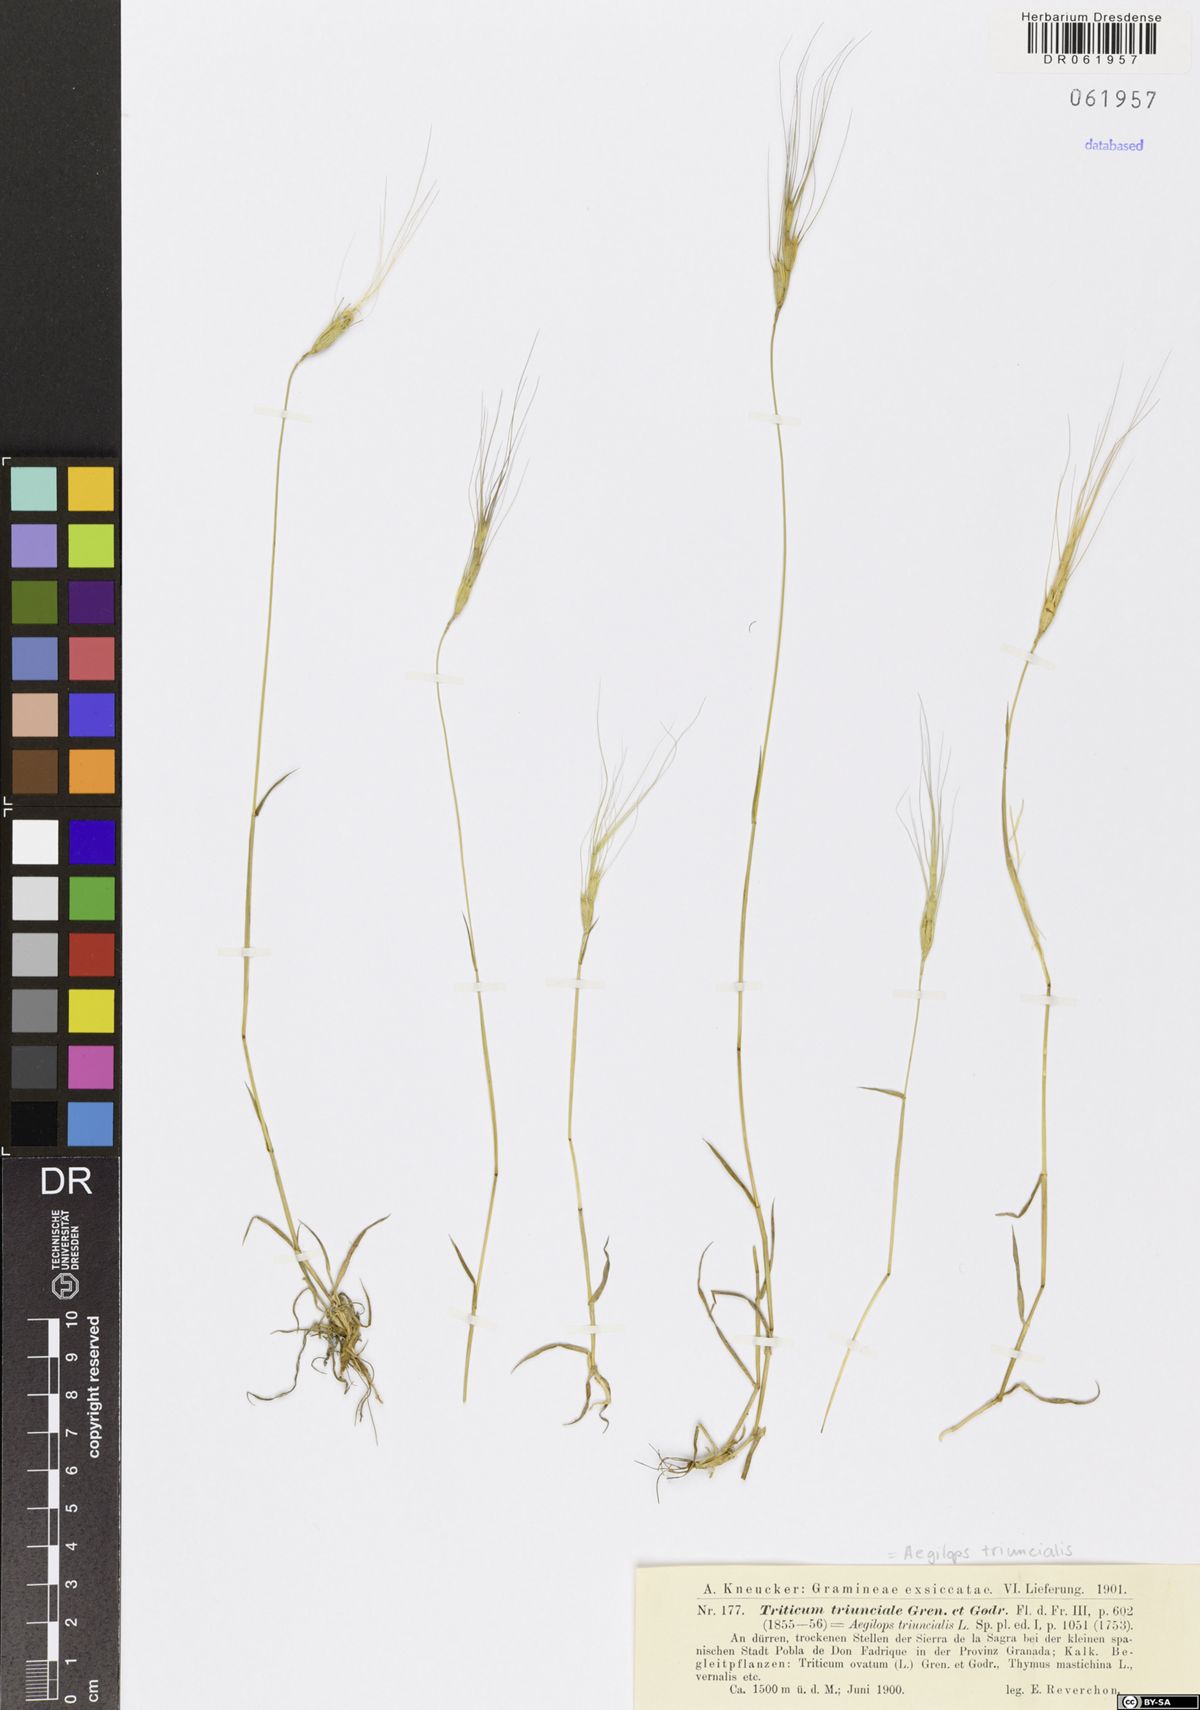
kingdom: Plantae
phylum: Tracheophyta
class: Liliopsida
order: Poales
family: Poaceae
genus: Aegilops
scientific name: Aegilops triuncialis
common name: Barb goat grass
